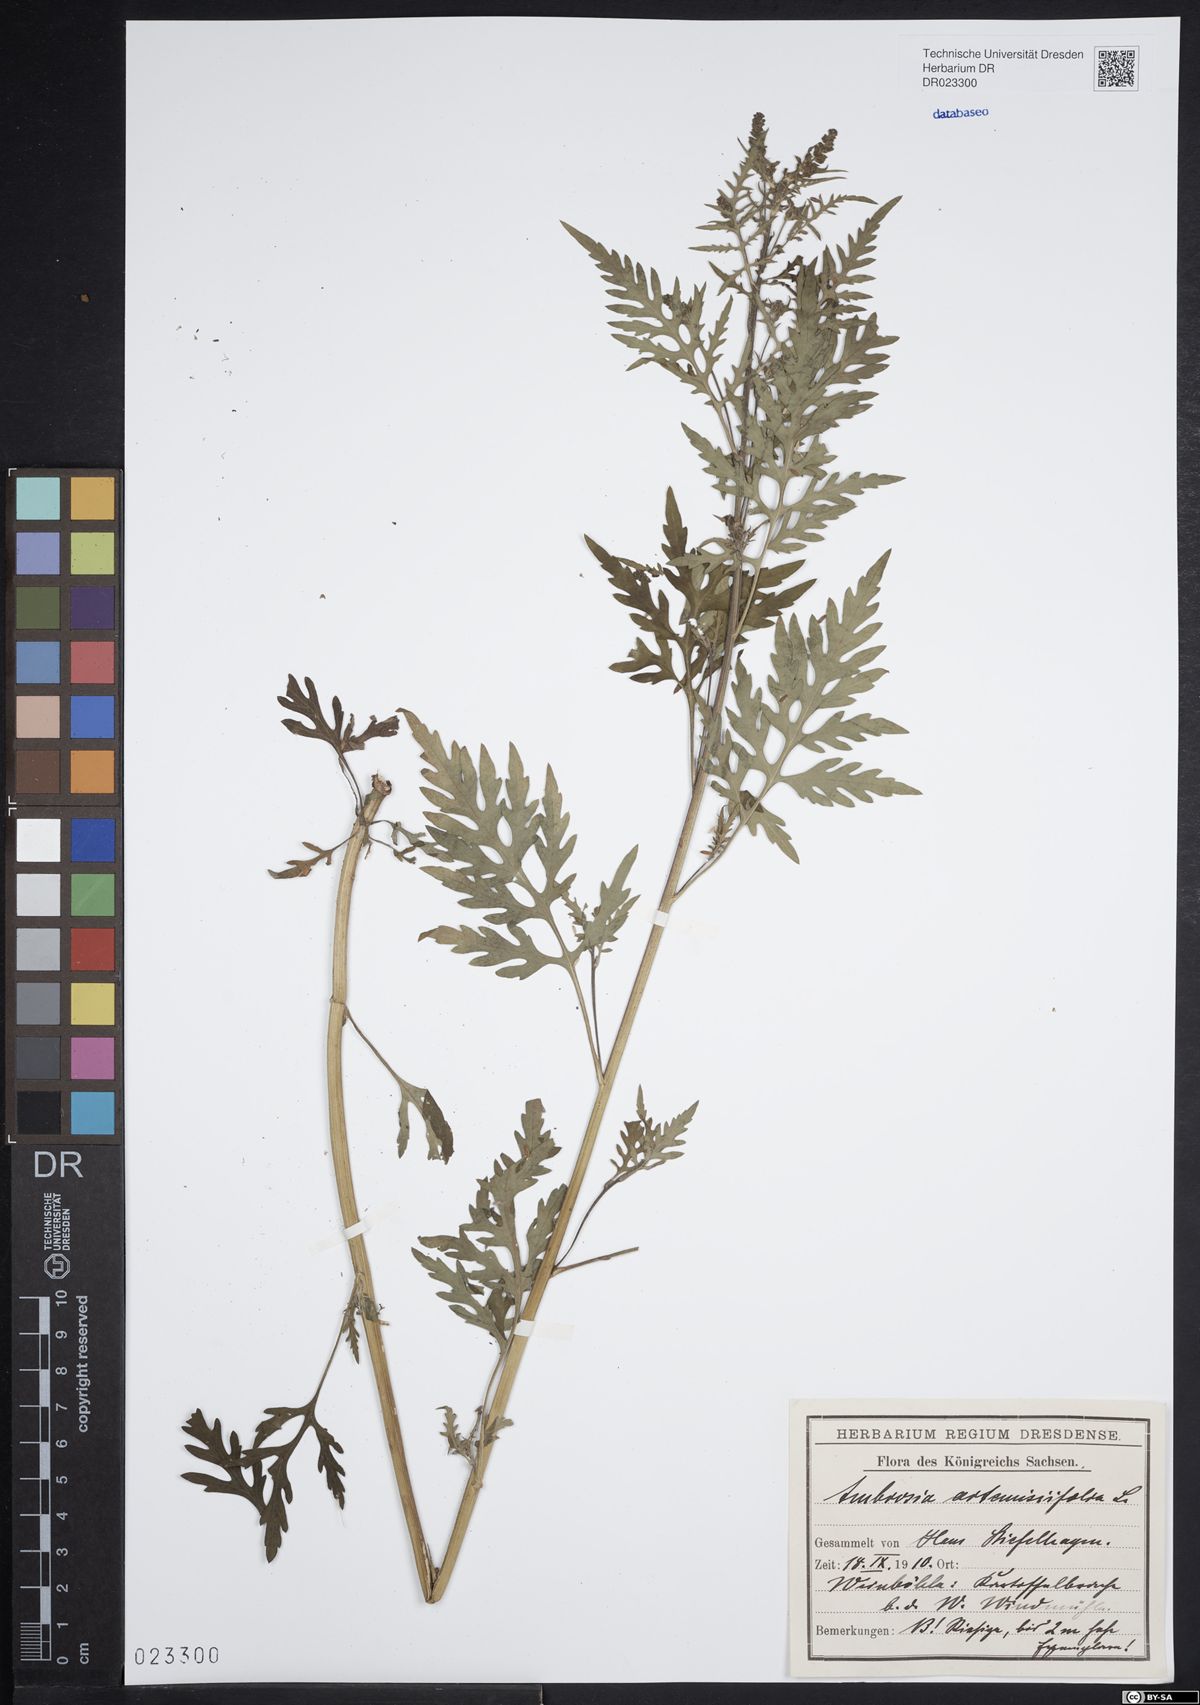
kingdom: Plantae
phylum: Tracheophyta
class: Magnoliopsida
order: Asterales
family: Asteraceae
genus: Ambrosia
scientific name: Ambrosia artemisiifolia
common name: Annual ragweed
